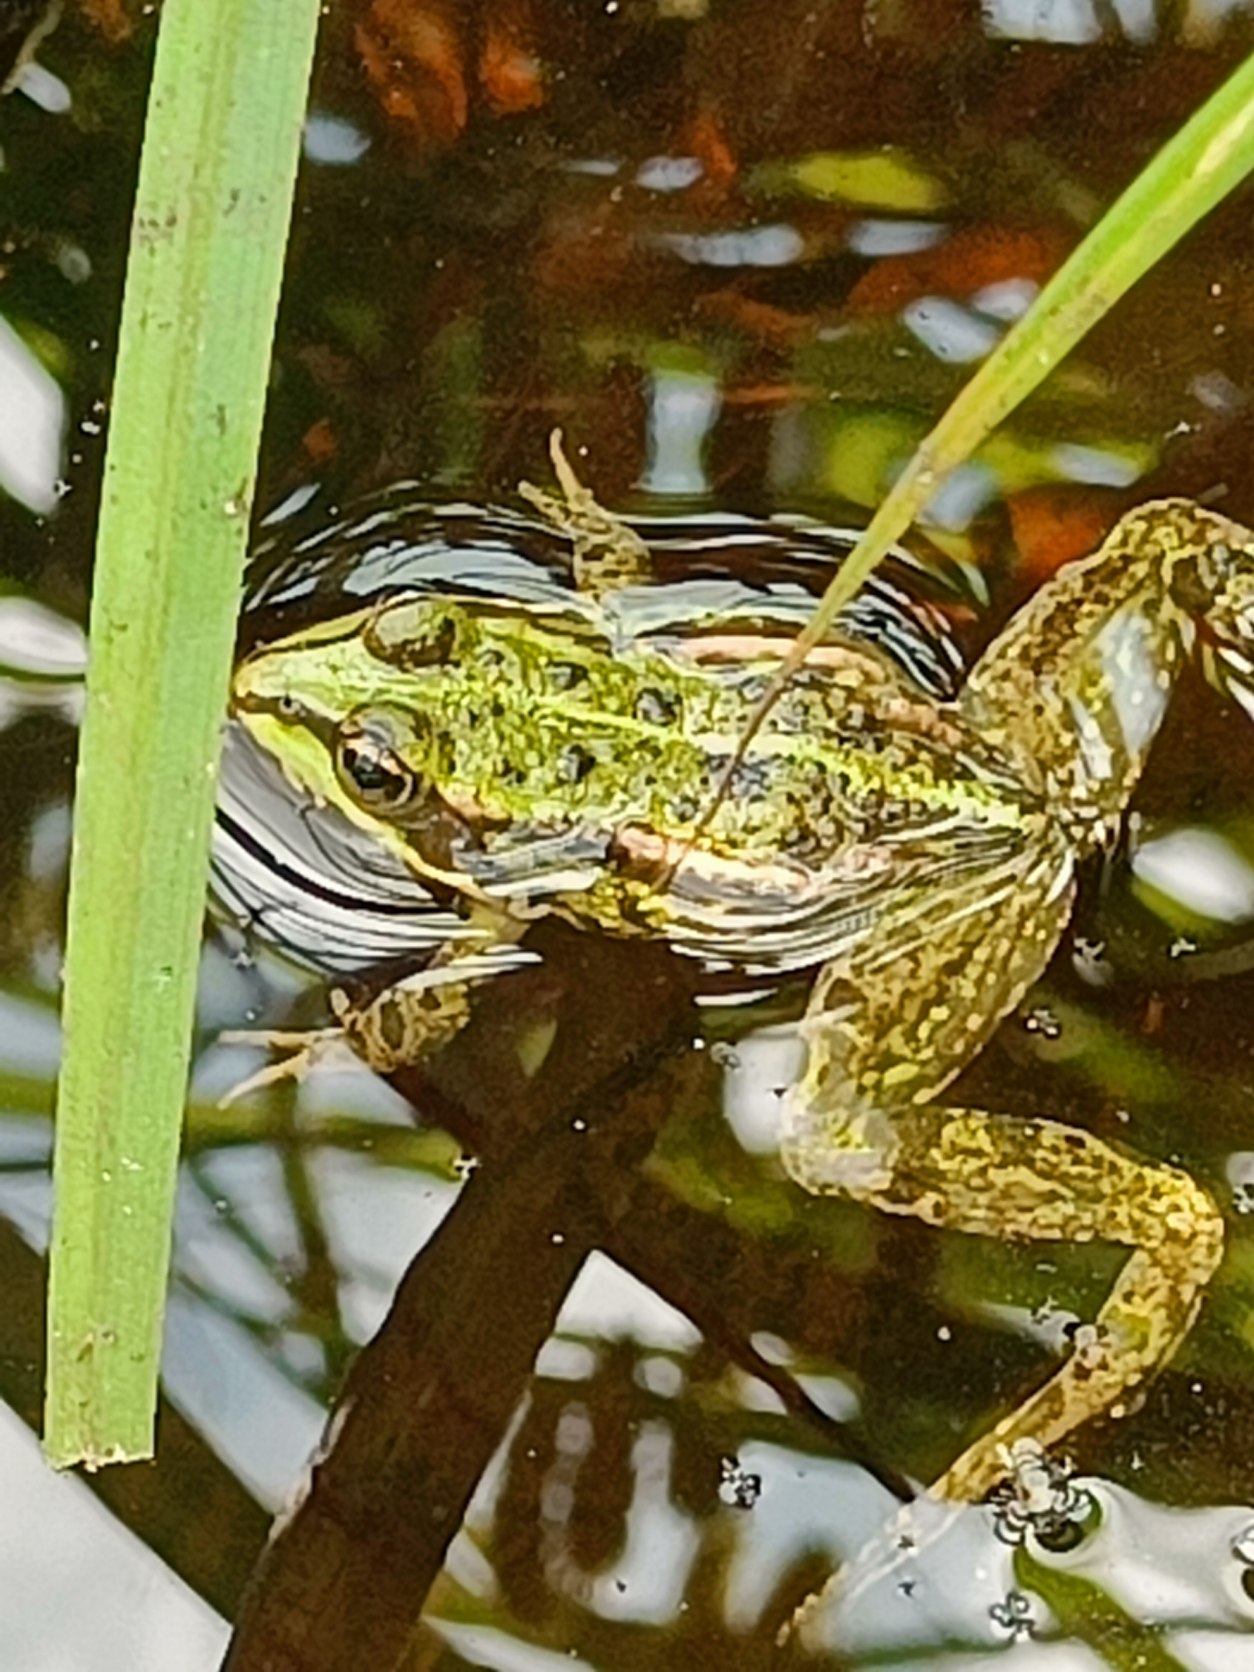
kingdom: Animalia
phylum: Chordata
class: Amphibia
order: Anura
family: Ranidae
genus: Pelophylax
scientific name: Pelophylax lessonae
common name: Grøn frø
